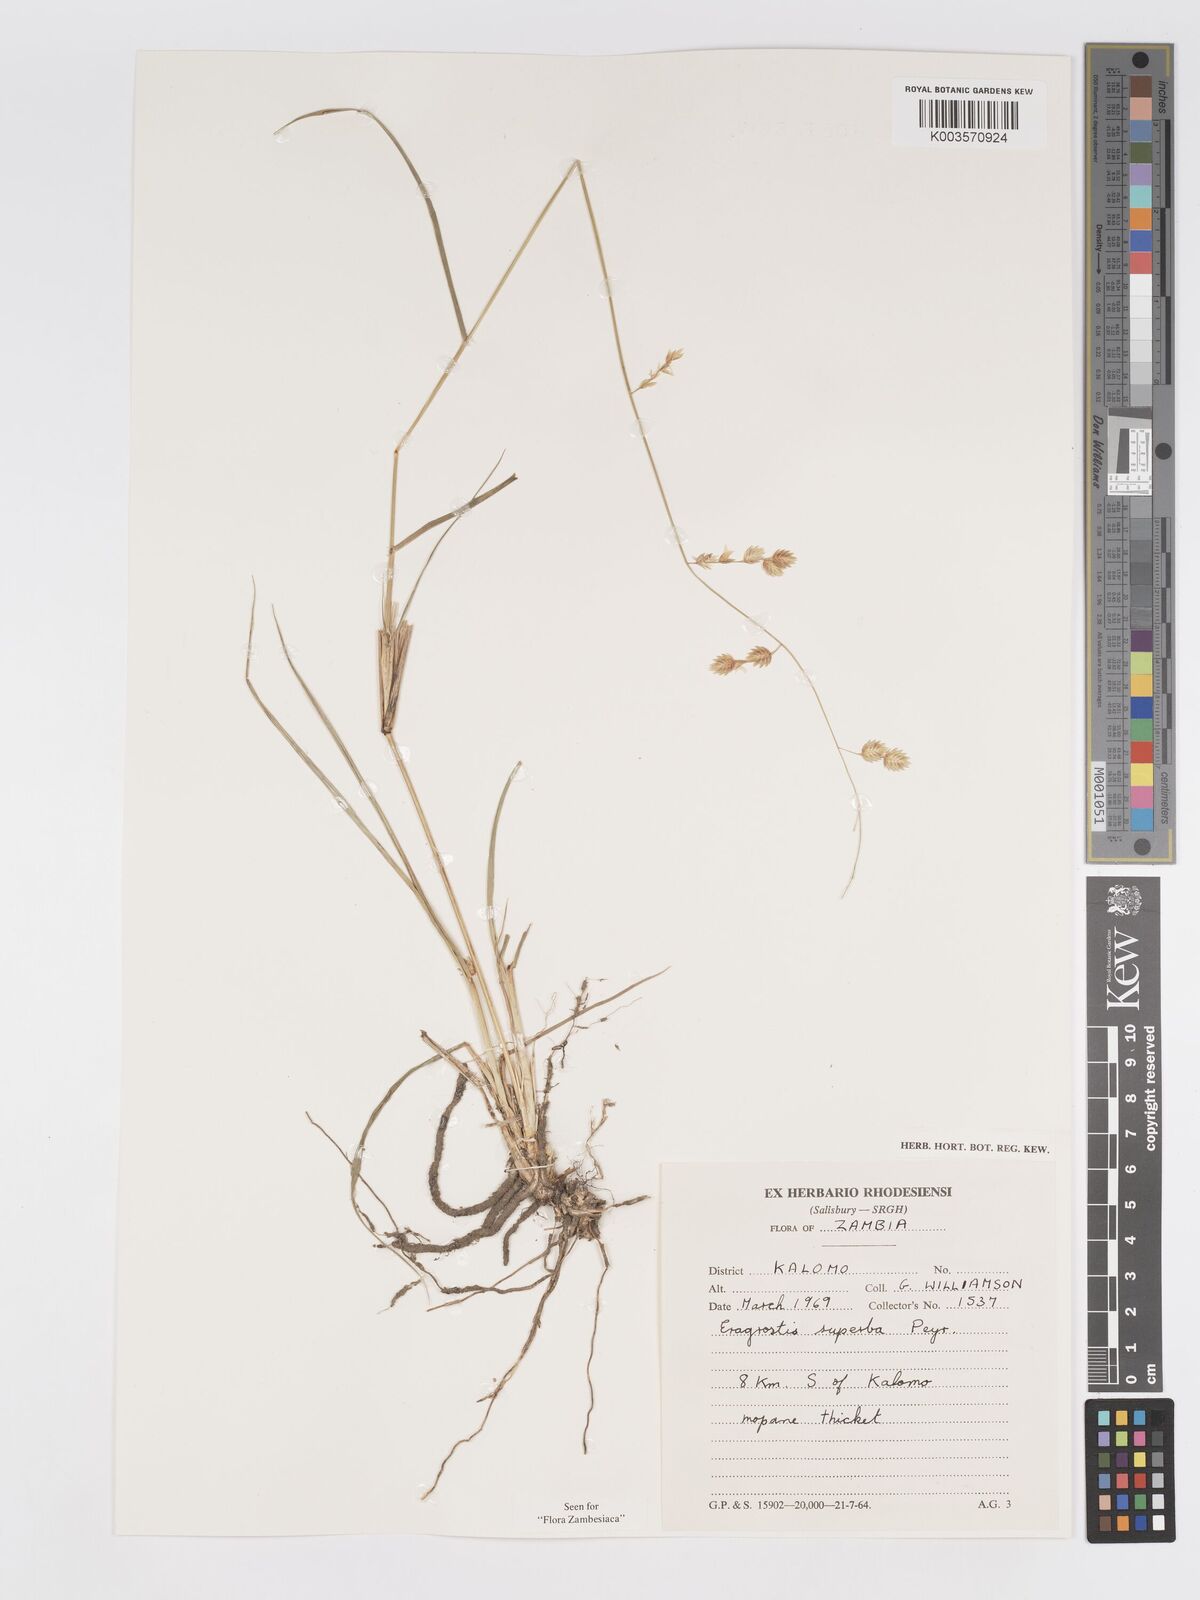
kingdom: Plantae
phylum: Tracheophyta
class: Liliopsida
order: Poales
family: Poaceae
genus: Eragrostis
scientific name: Eragrostis superba
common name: Wilman lovegrass
